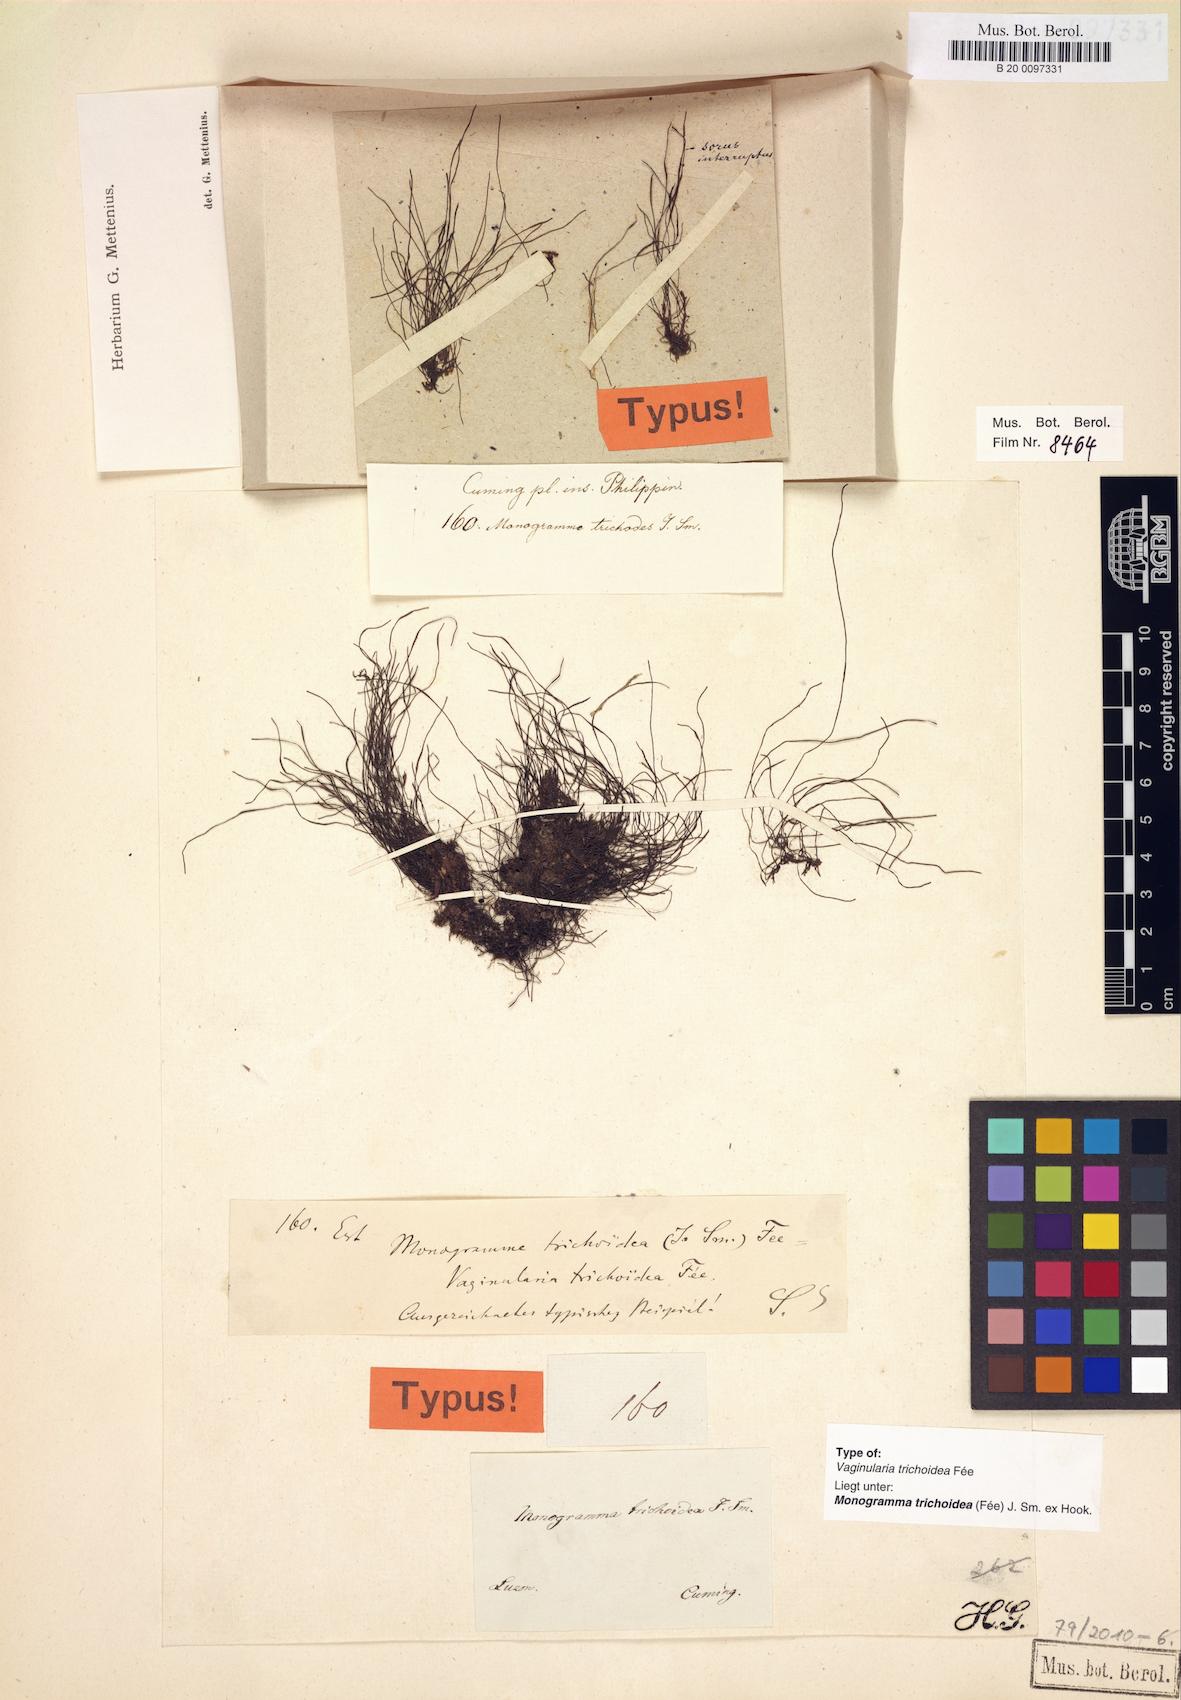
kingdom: Plantae
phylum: Tracheophyta
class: Polypodiopsida
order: Polypodiales
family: Pteridaceae
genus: Vaginularia
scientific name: Vaginularia trichoidea
